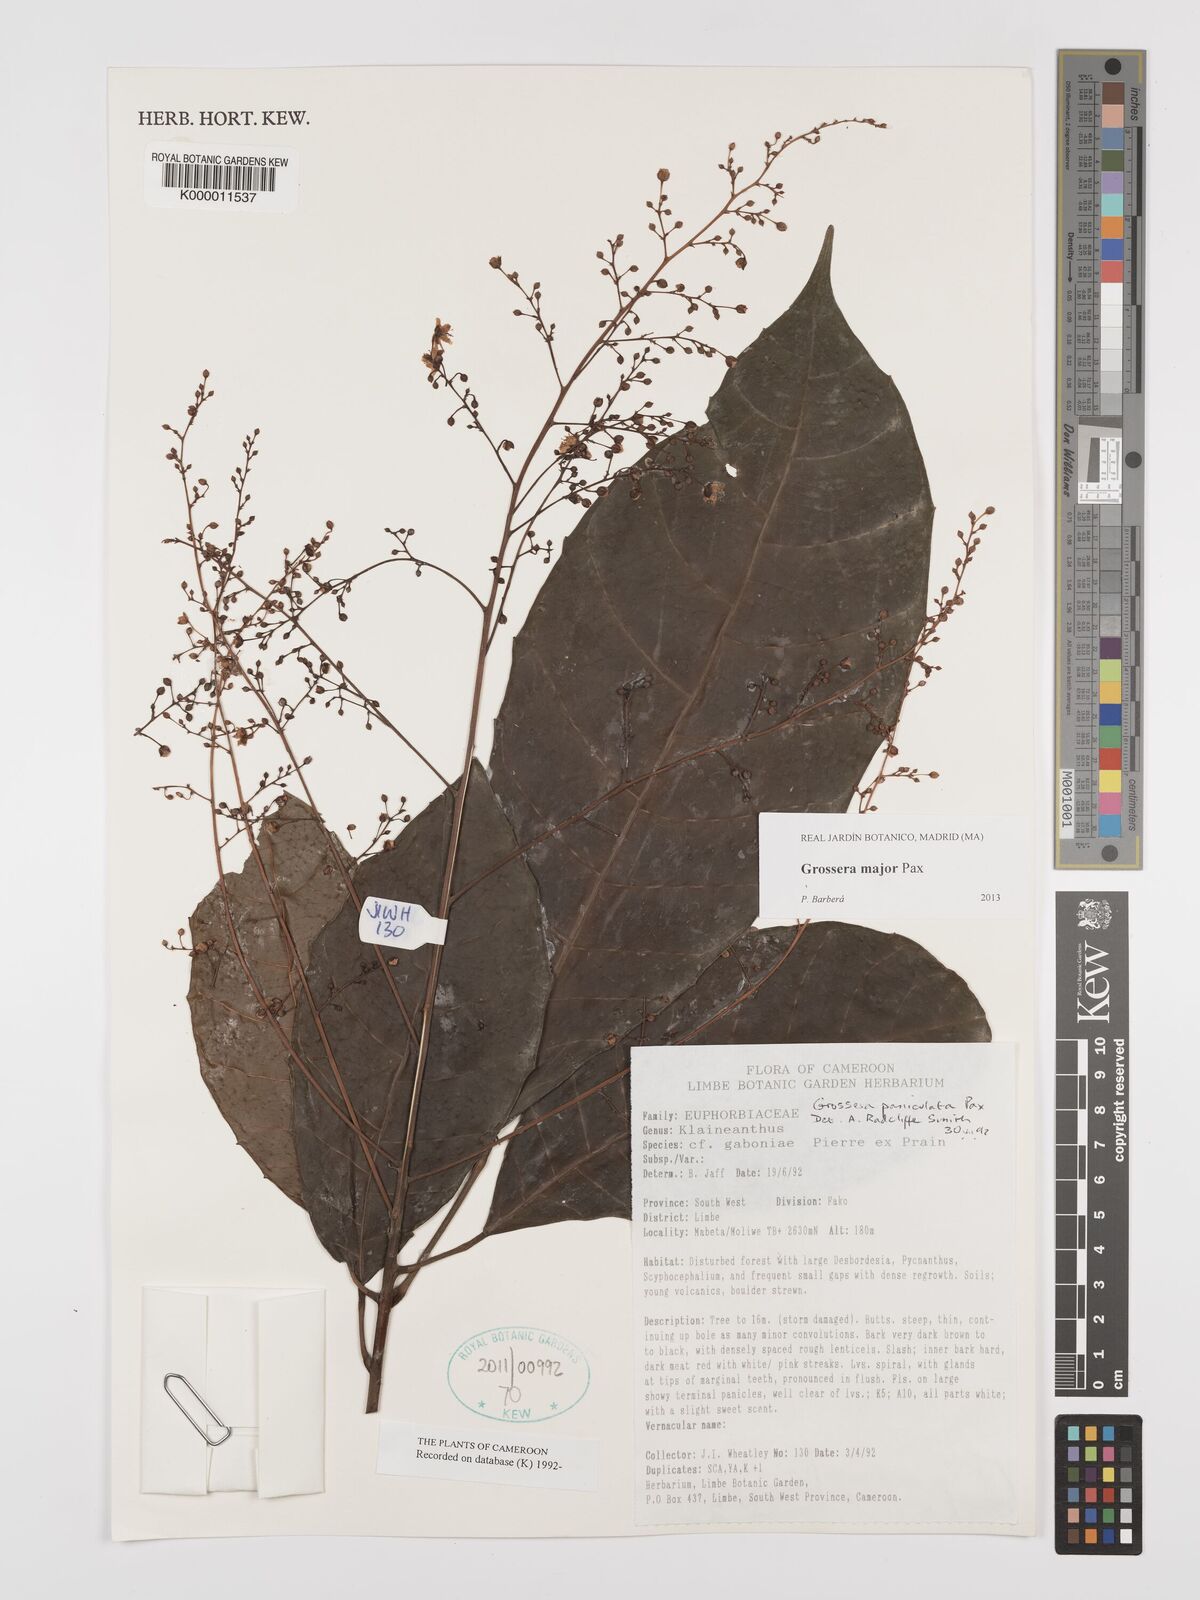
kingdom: Plantae
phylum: Tracheophyta
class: Magnoliopsida
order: Malpighiales
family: Euphorbiaceae
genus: Grossera
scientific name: Grossera paniculata
